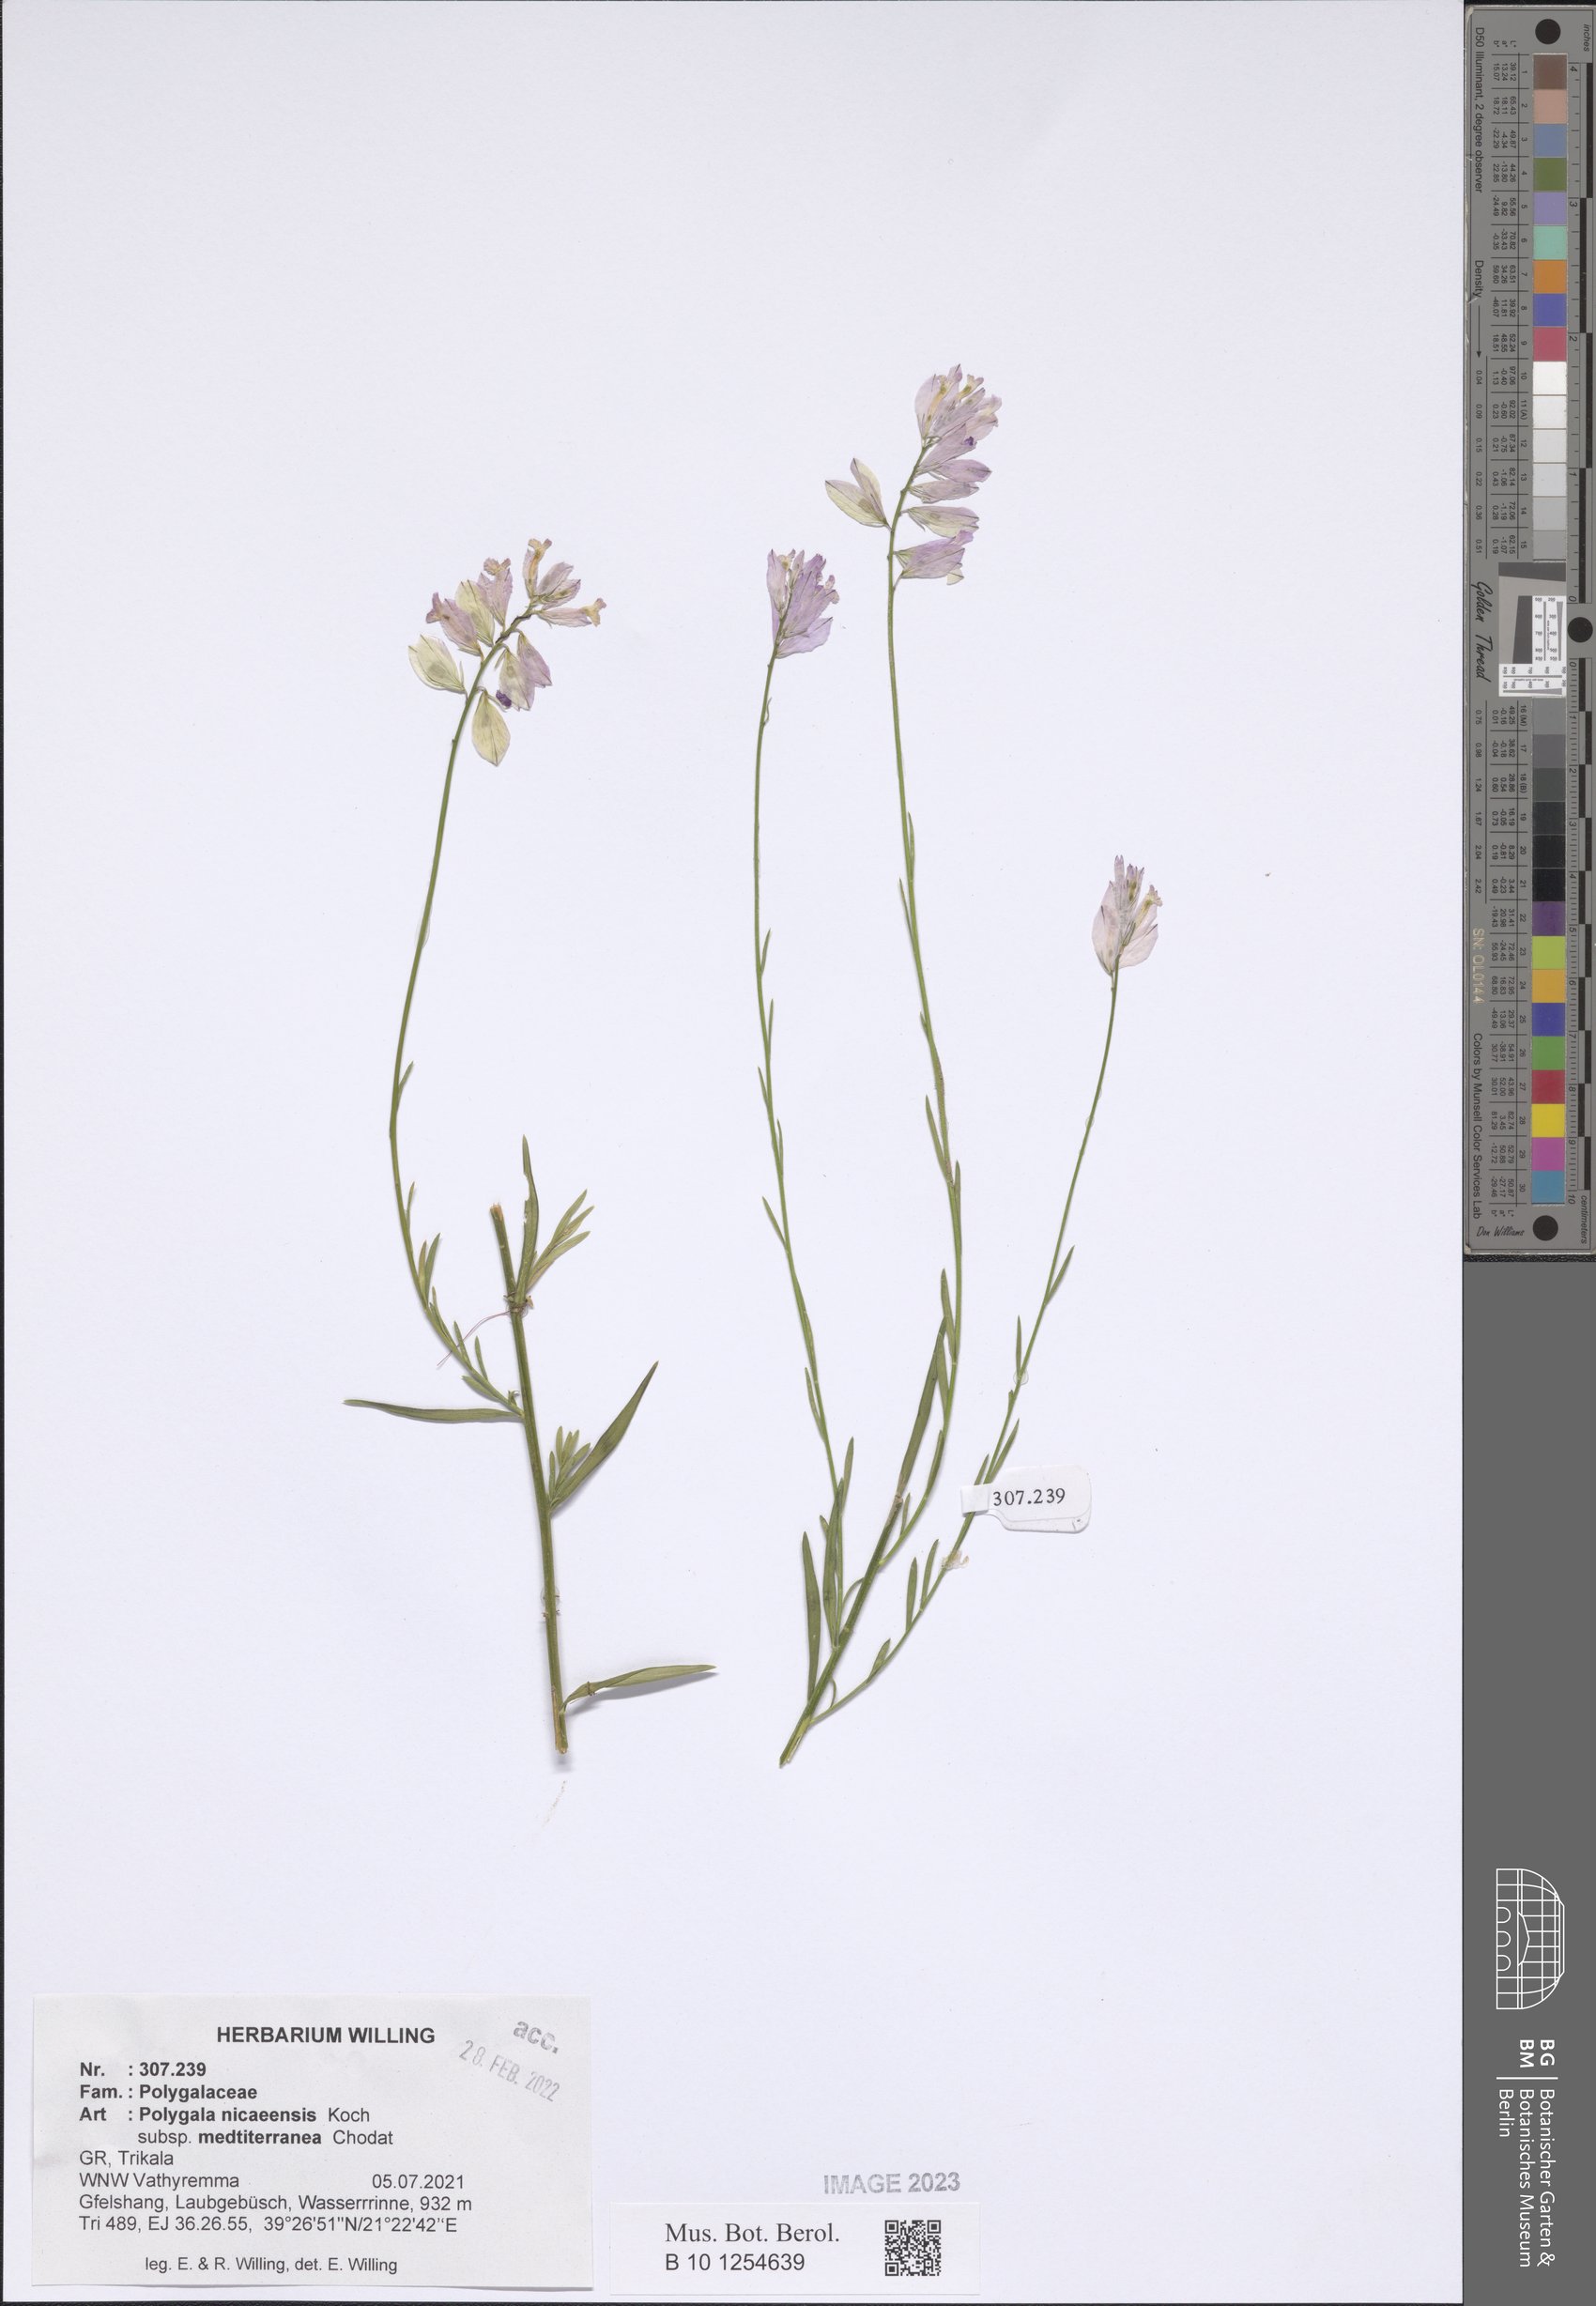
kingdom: Plantae
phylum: Tracheophyta
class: Magnoliopsida
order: Fabales
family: Polygalaceae
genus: Polygala
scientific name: Polygala nicaeensis
